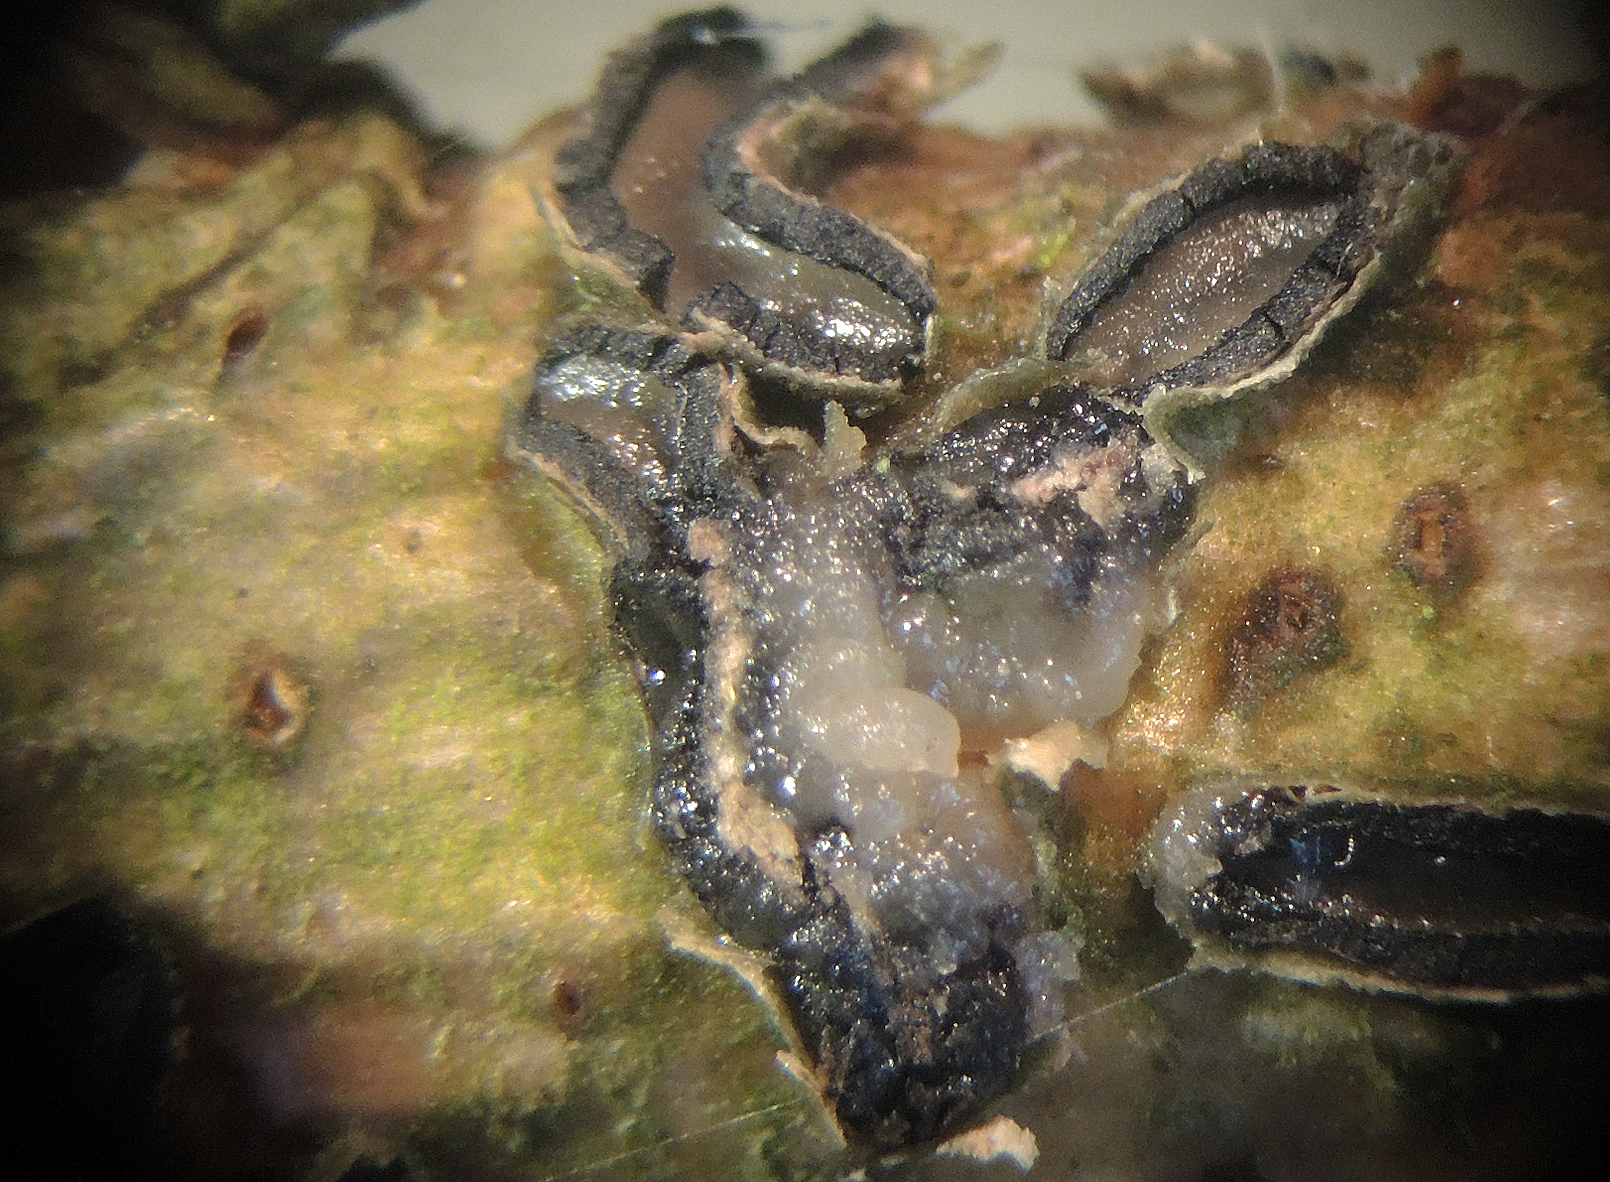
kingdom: Fungi
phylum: Basidiomycota
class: Tremellomycetes
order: Tremellales
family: Tremellaceae
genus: Tremella
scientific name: Tremella colpomaticola
